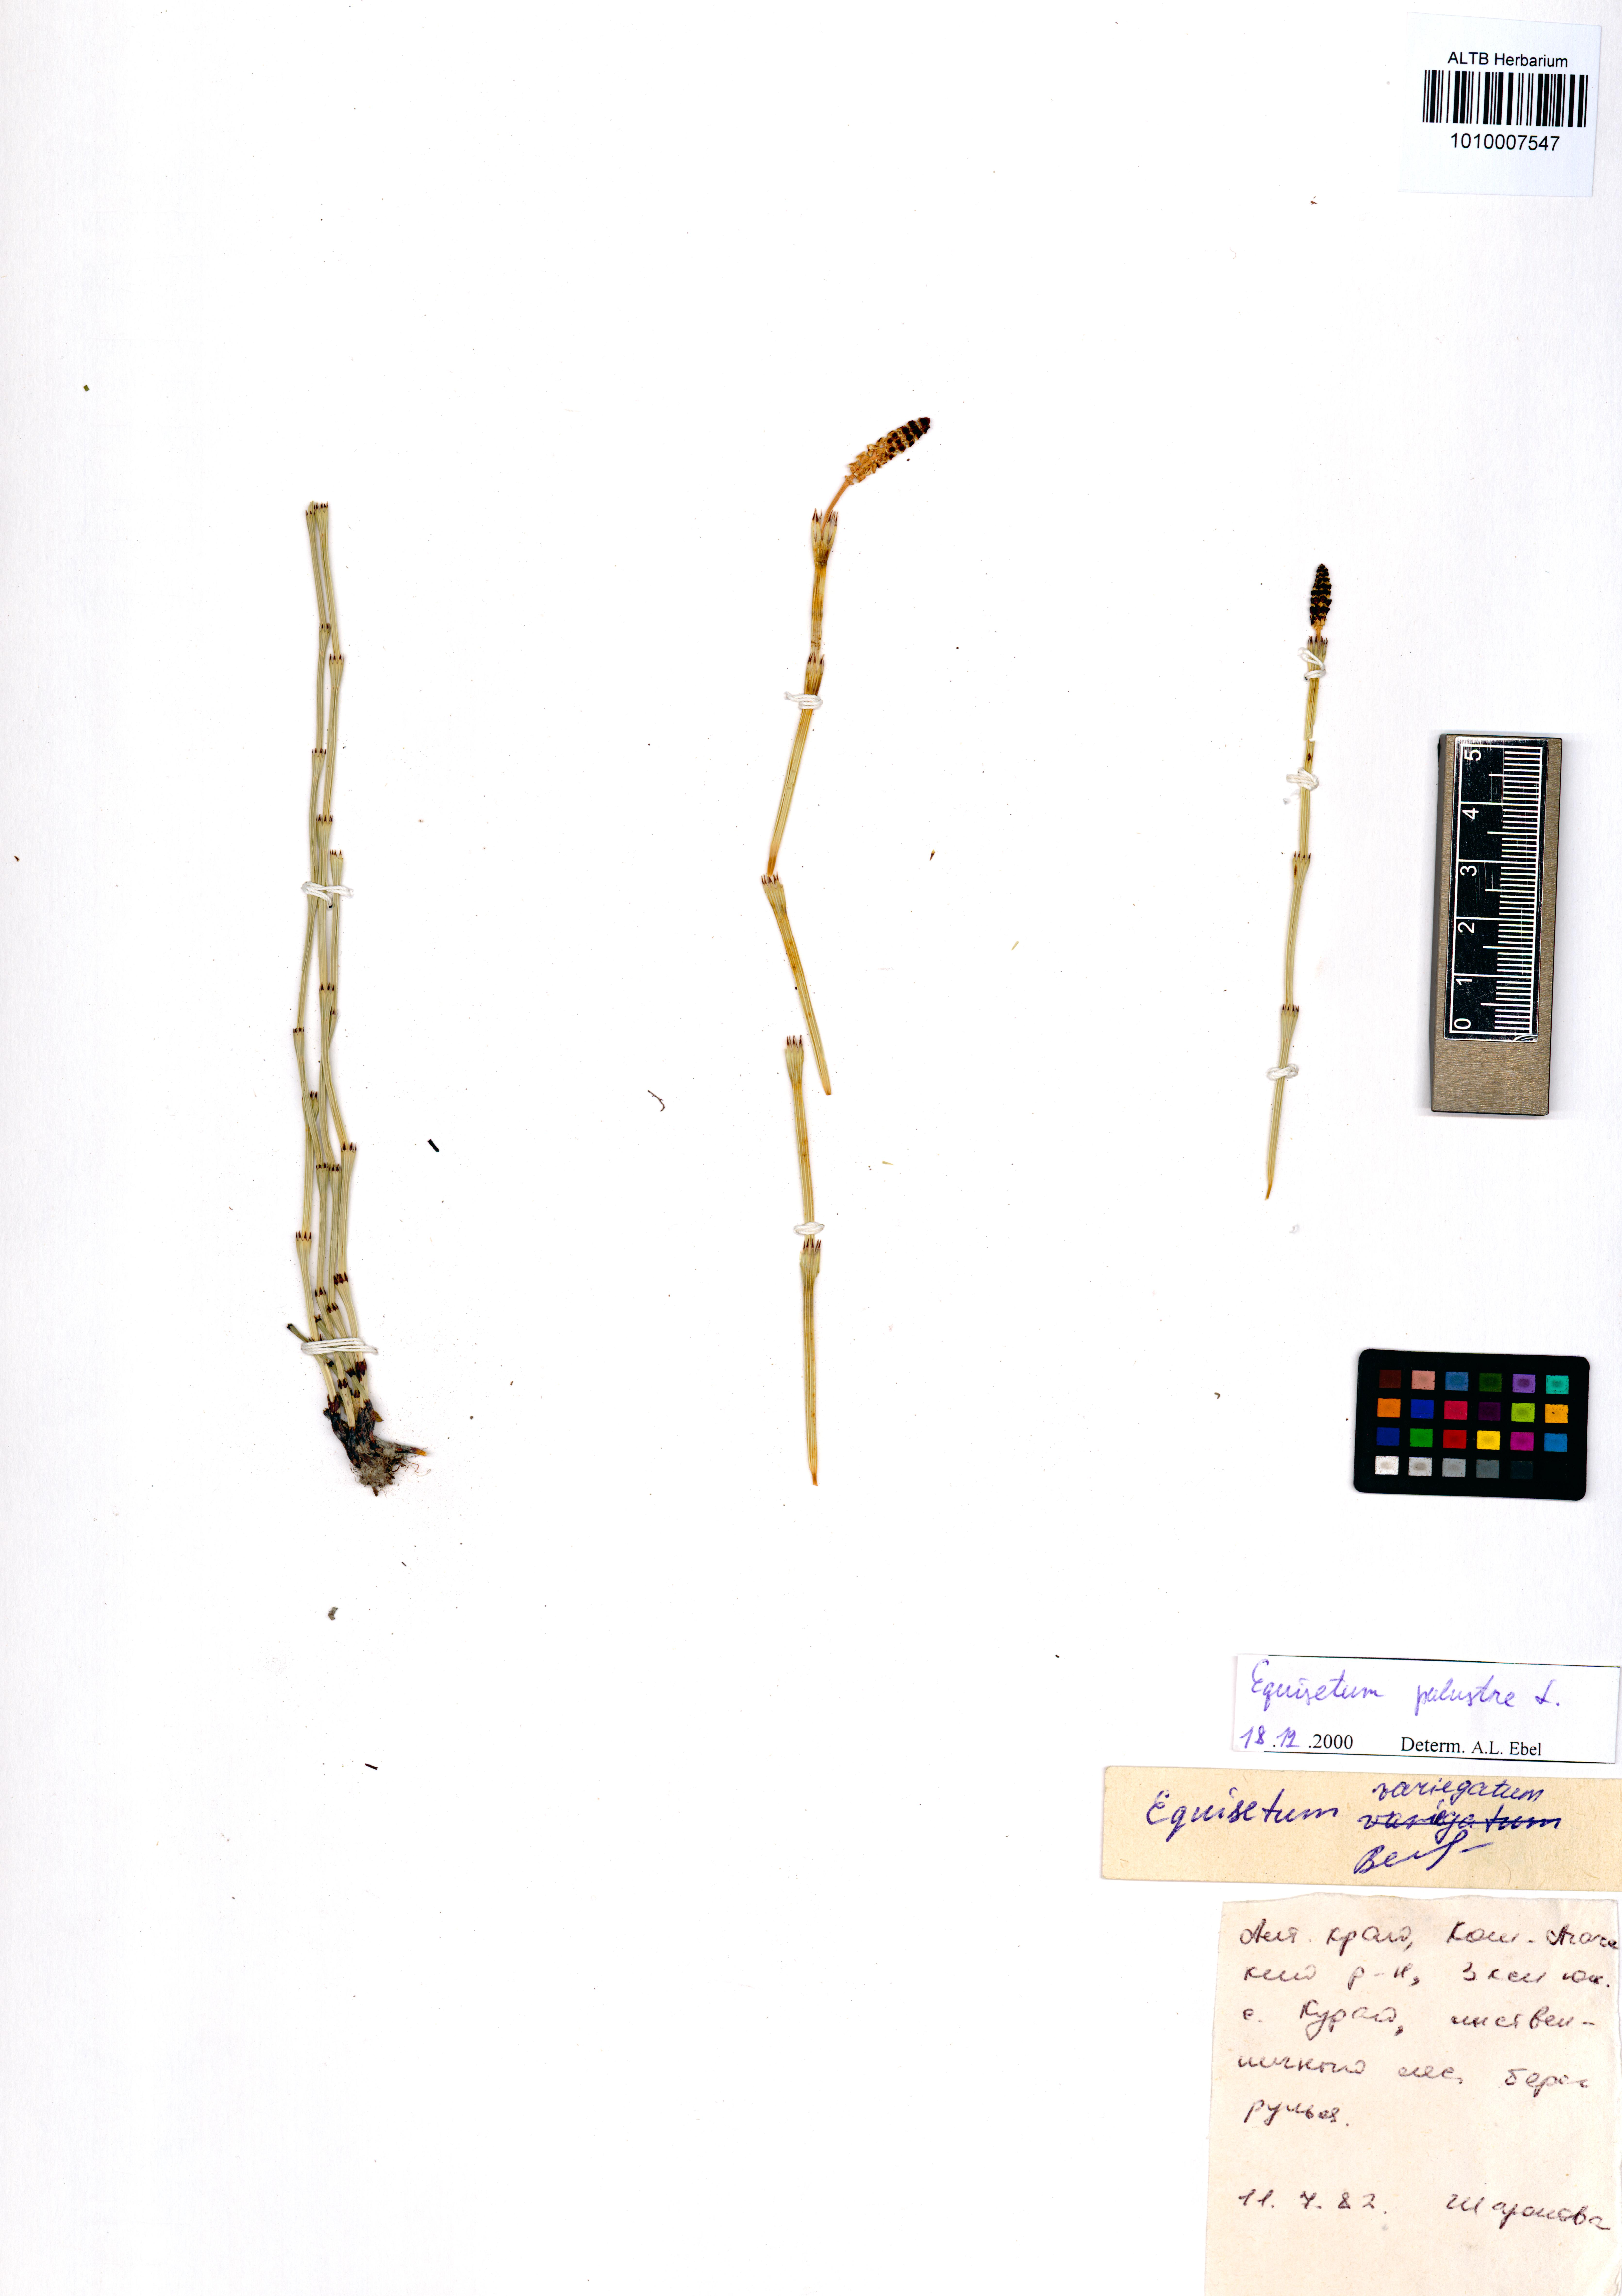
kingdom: Plantae
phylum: Tracheophyta
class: Polypodiopsida
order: Equisetales
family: Equisetaceae
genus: Equisetum
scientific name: Equisetum palustre
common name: Marsh horsetail
